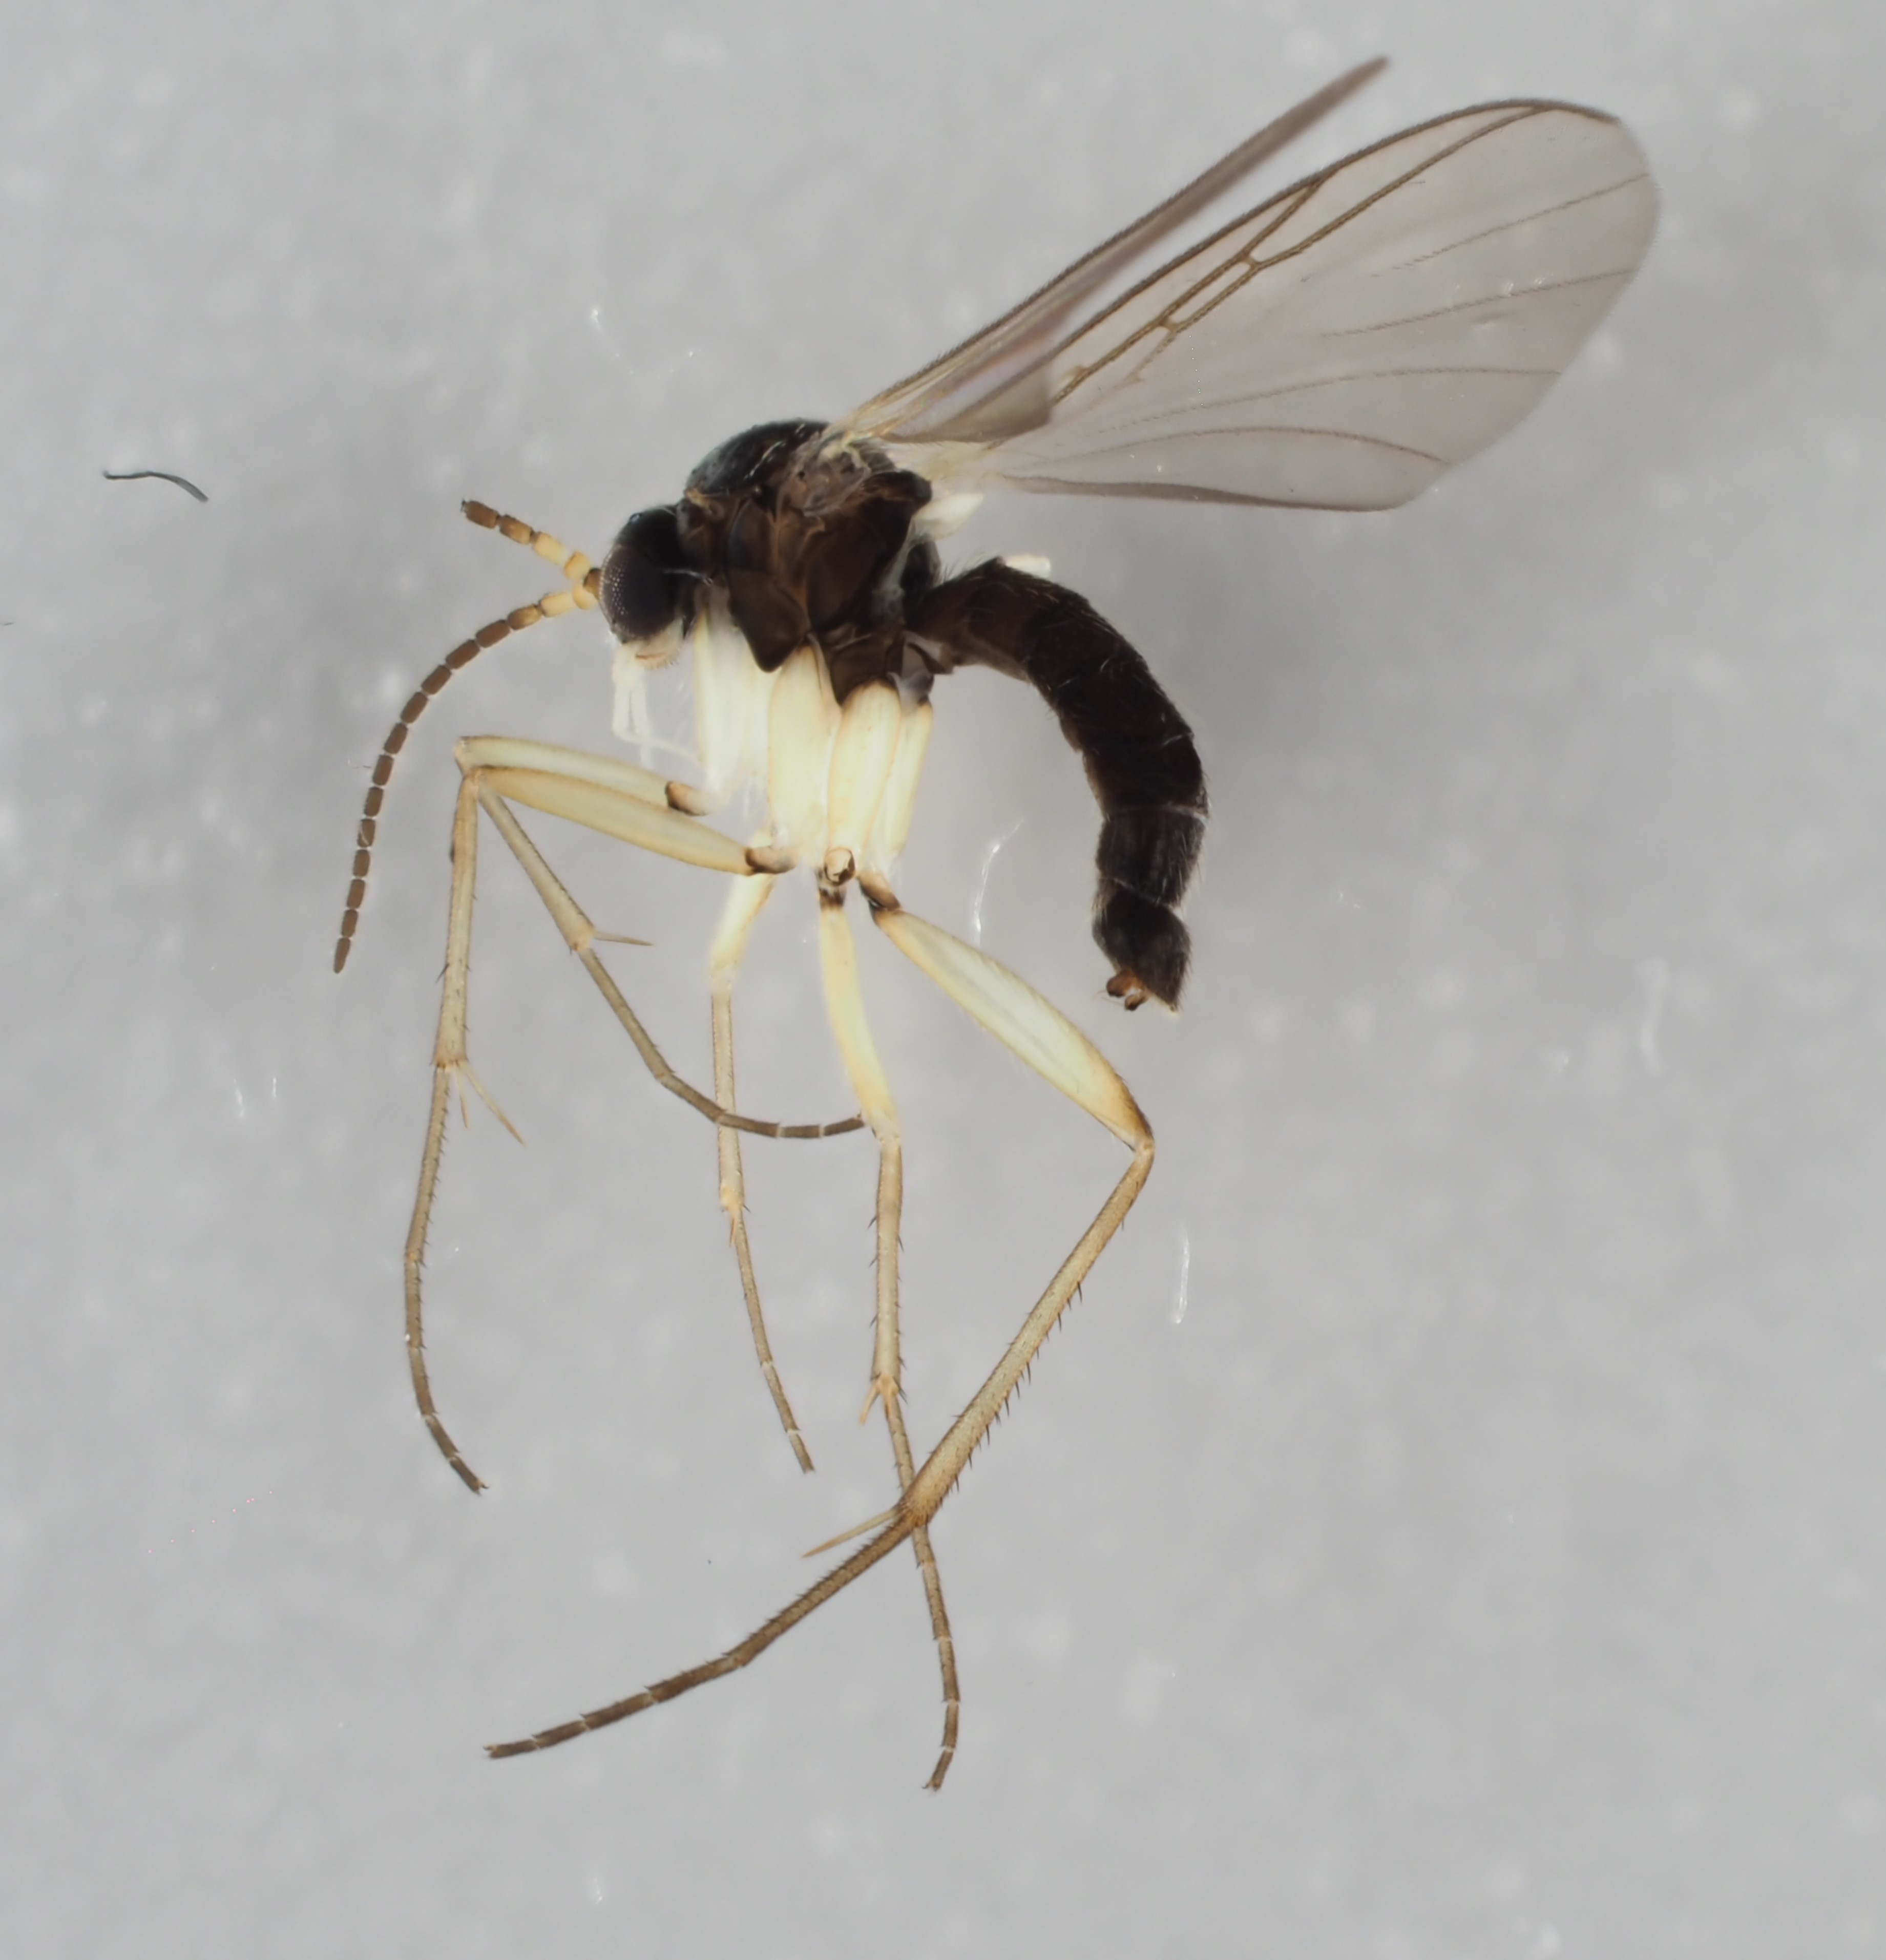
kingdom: Animalia
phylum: Arthropoda
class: Insecta
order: Diptera
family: Mycetophilidae
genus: Ectrepesthoneura
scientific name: Ectrepesthoneura pubescens
